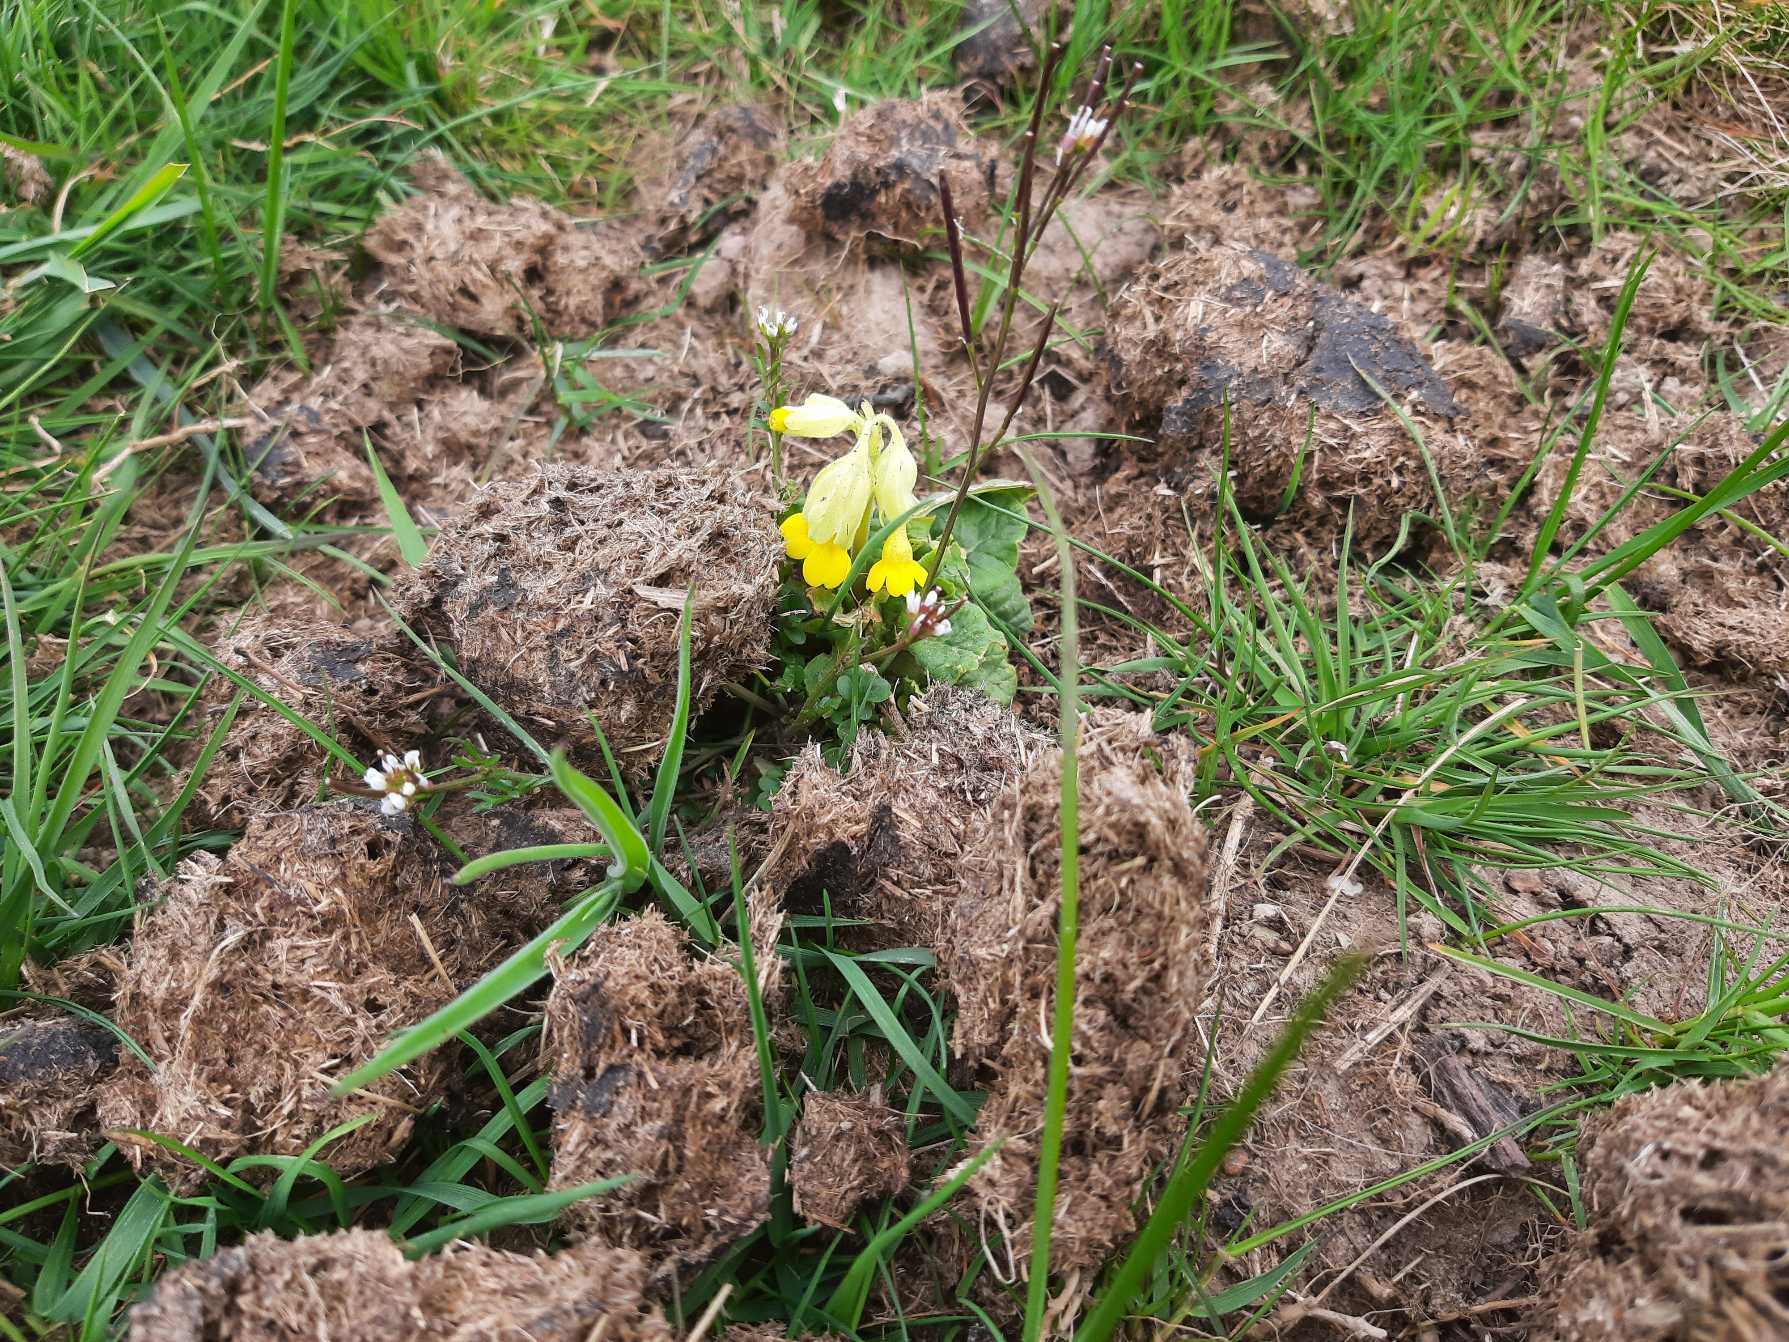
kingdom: Plantae
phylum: Tracheophyta
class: Magnoliopsida
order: Ericales
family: Primulaceae
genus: Primula
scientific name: Primula veris
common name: Hulkravet kodriver
